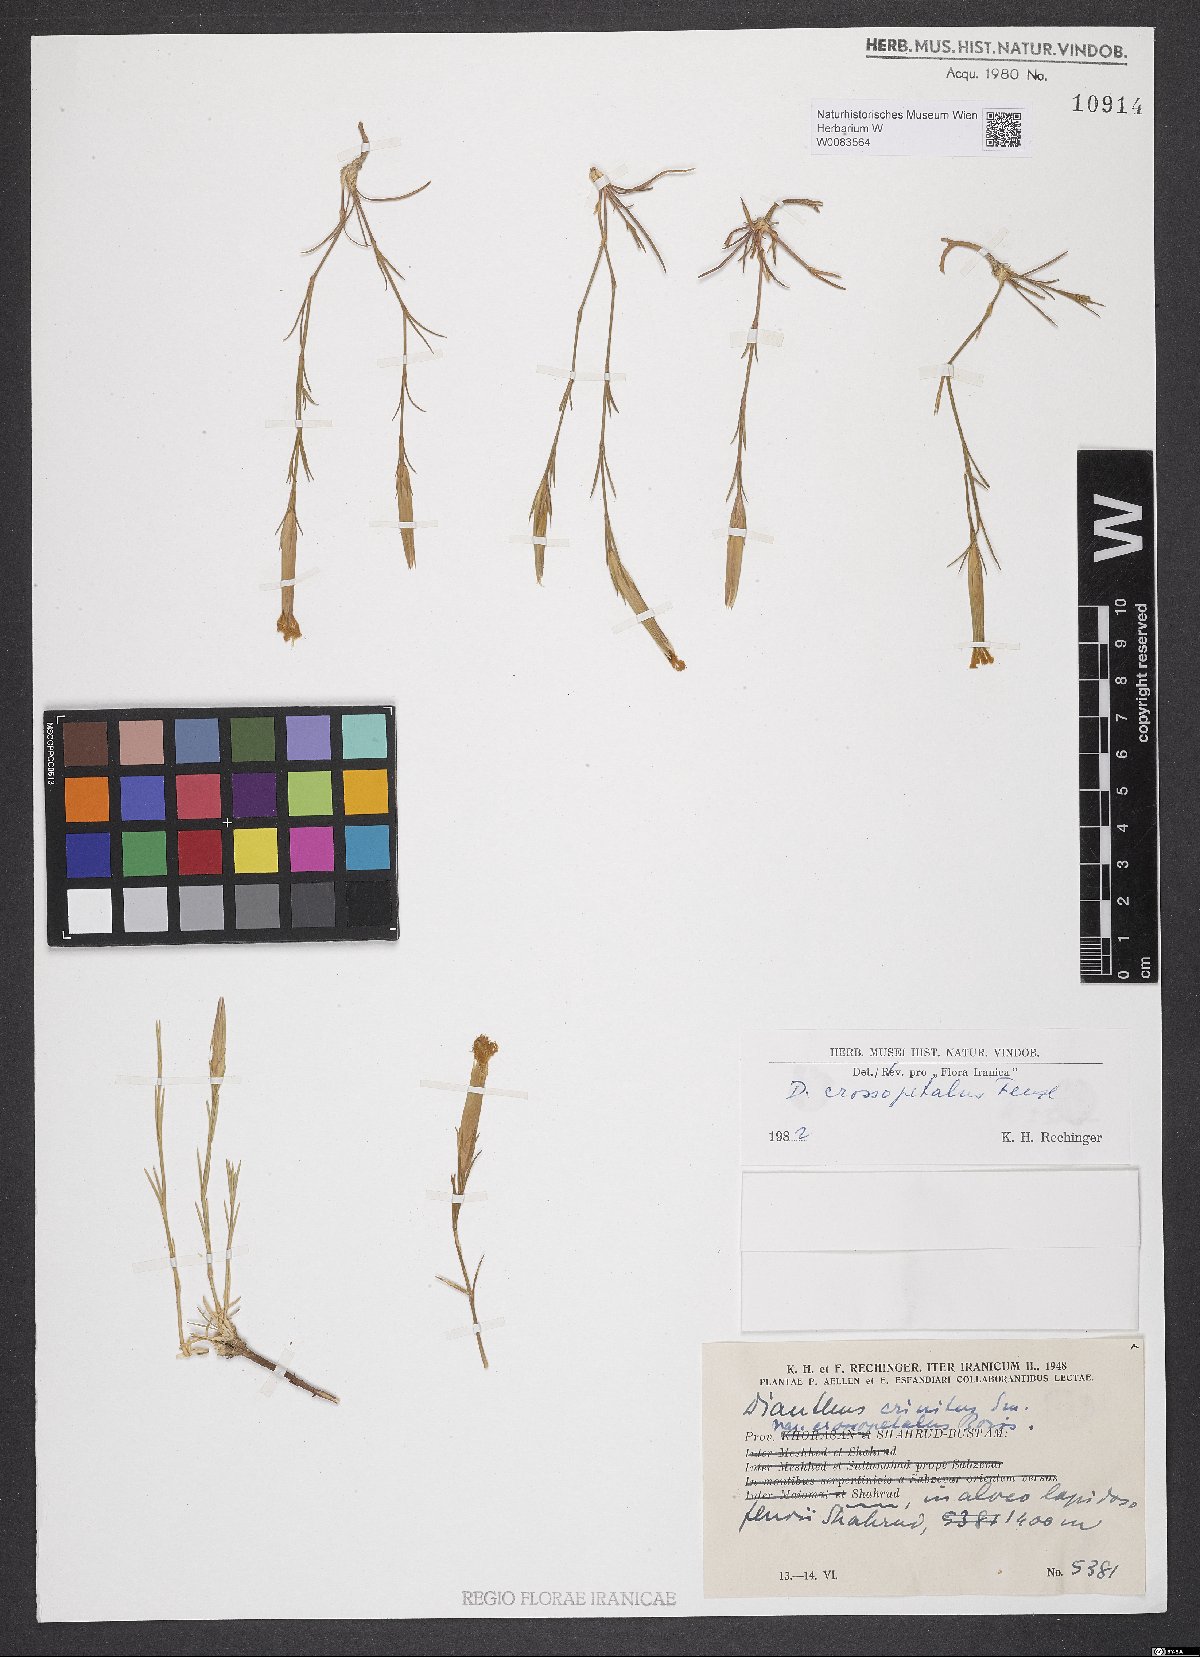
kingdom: Plantae
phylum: Tracheophyta
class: Magnoliopsida
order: Caryophyllales
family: Caryophyllaceae
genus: Dianthus
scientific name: Dianthus crossopetalus
